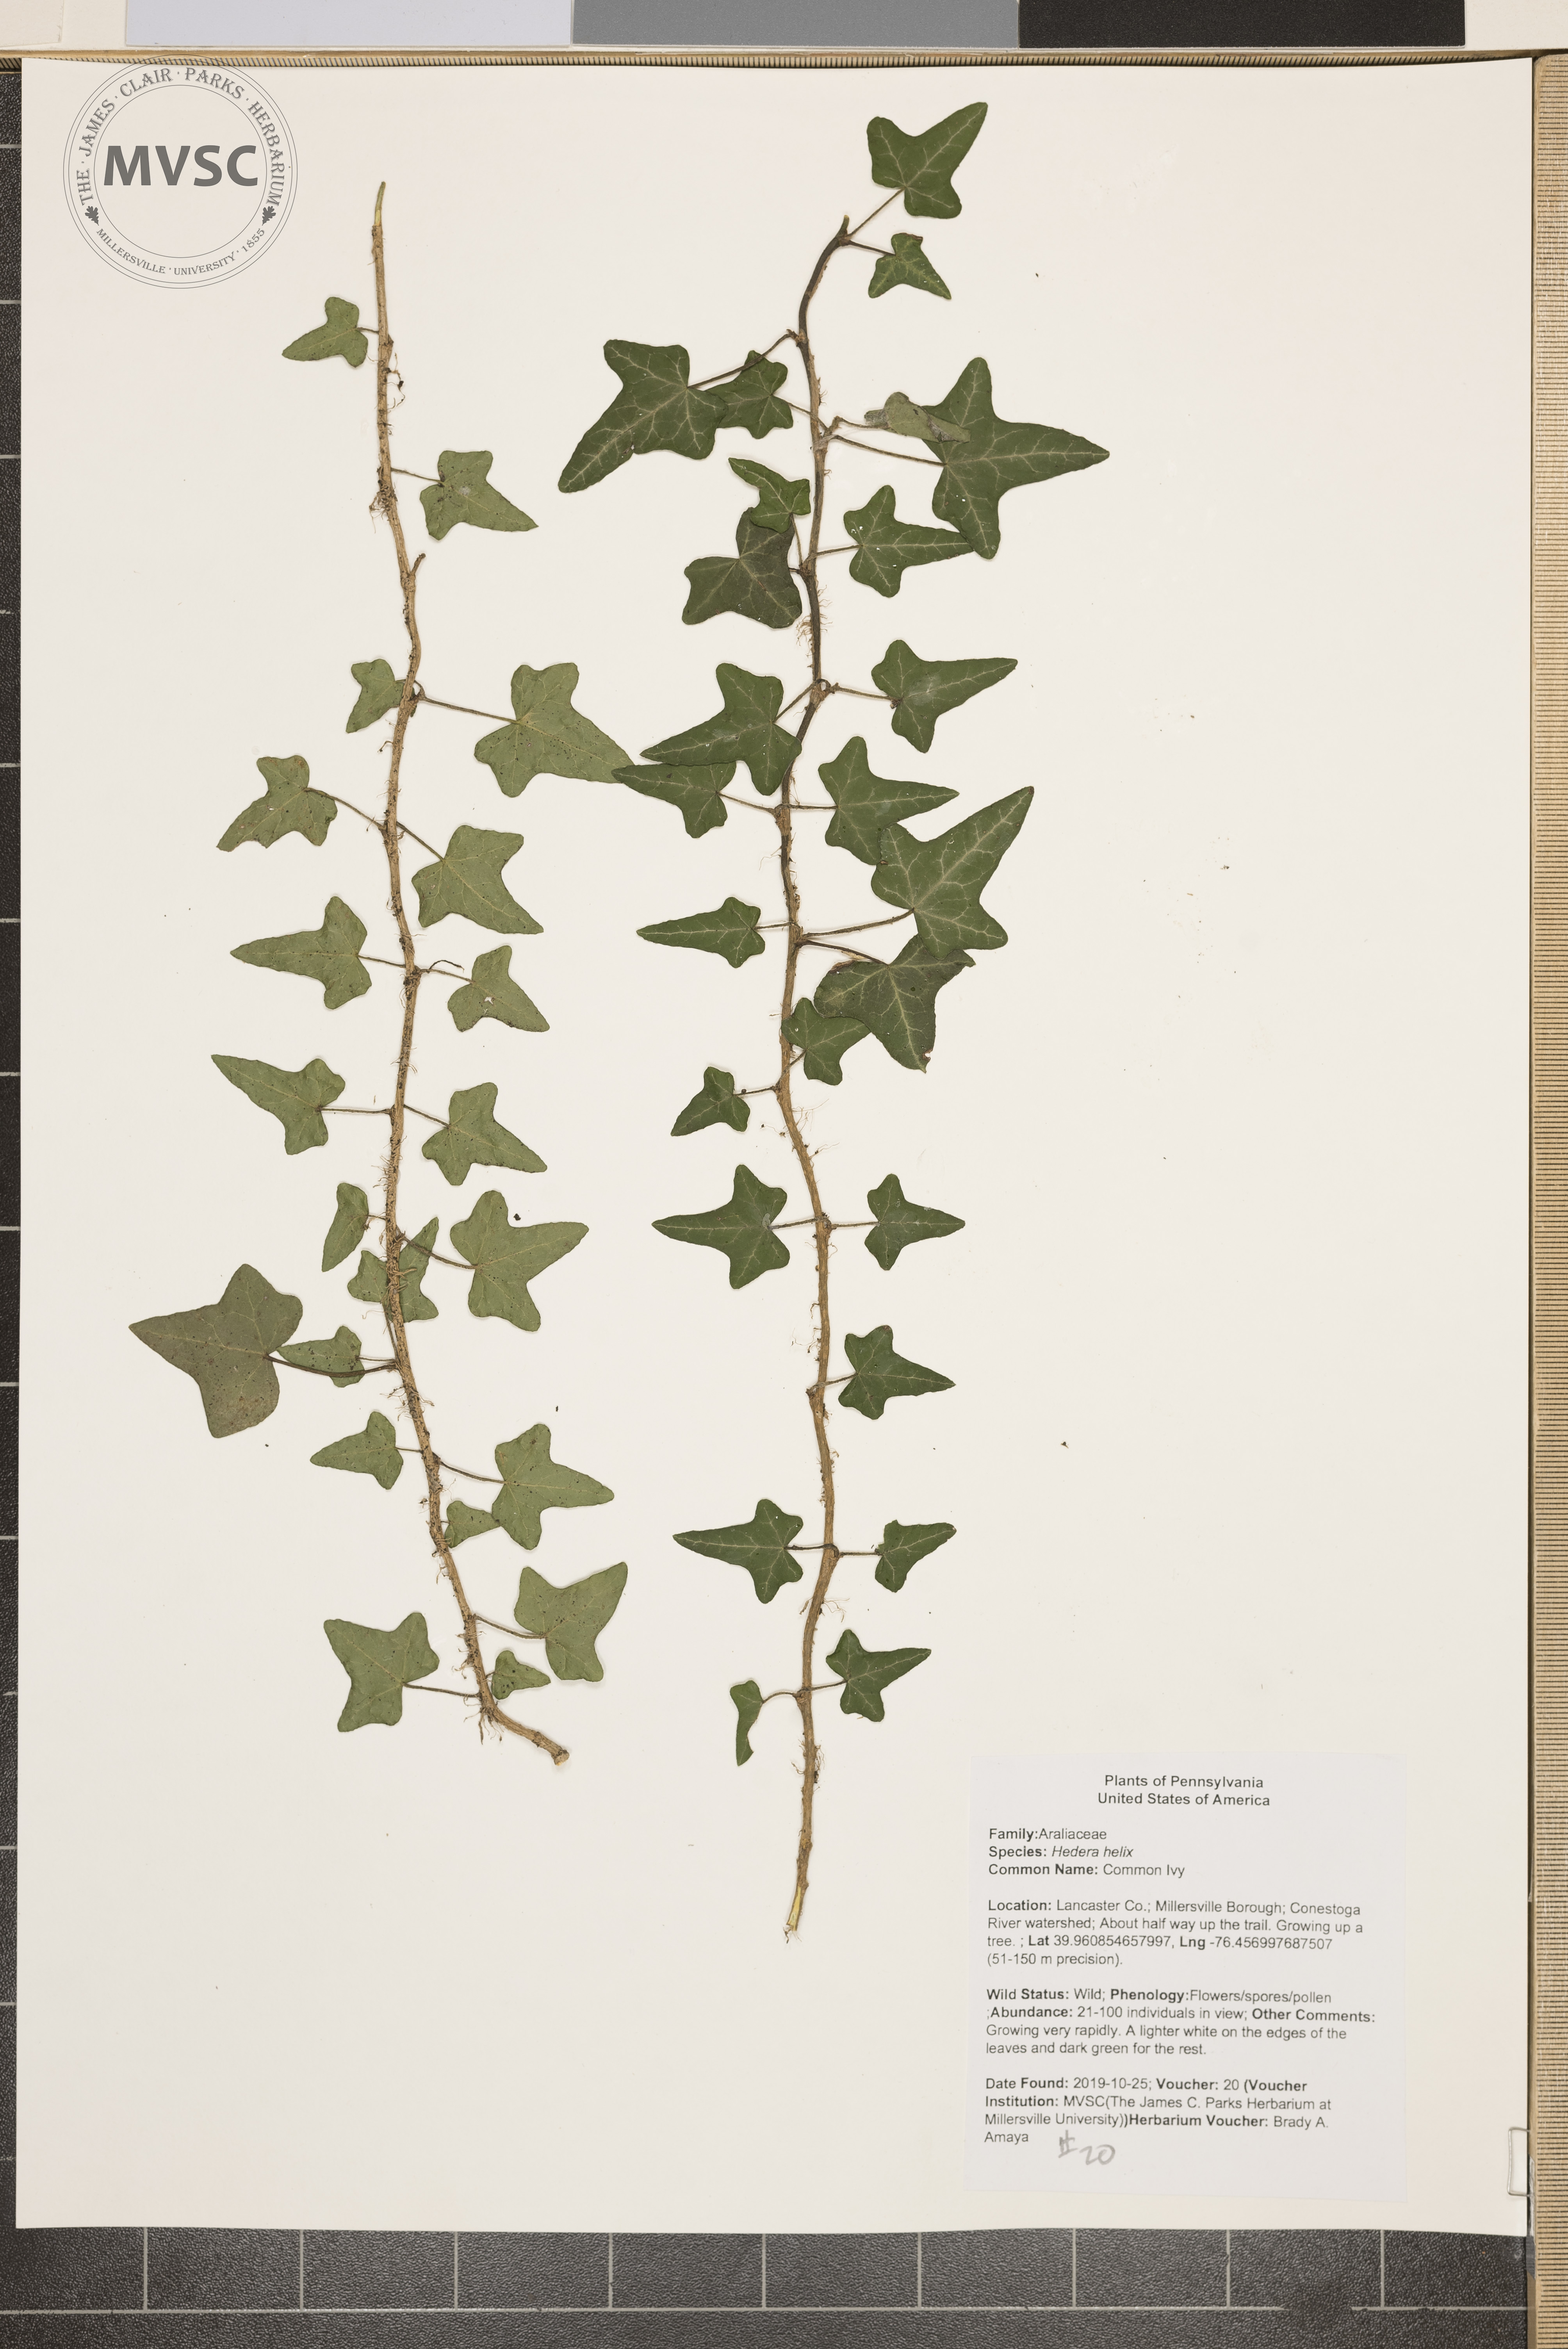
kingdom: Plantae
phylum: Tracheophyta
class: Magnoliopsida
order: Apiales
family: Araliaceae
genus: Hedera
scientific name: Hedera helix
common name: Common Ivy
